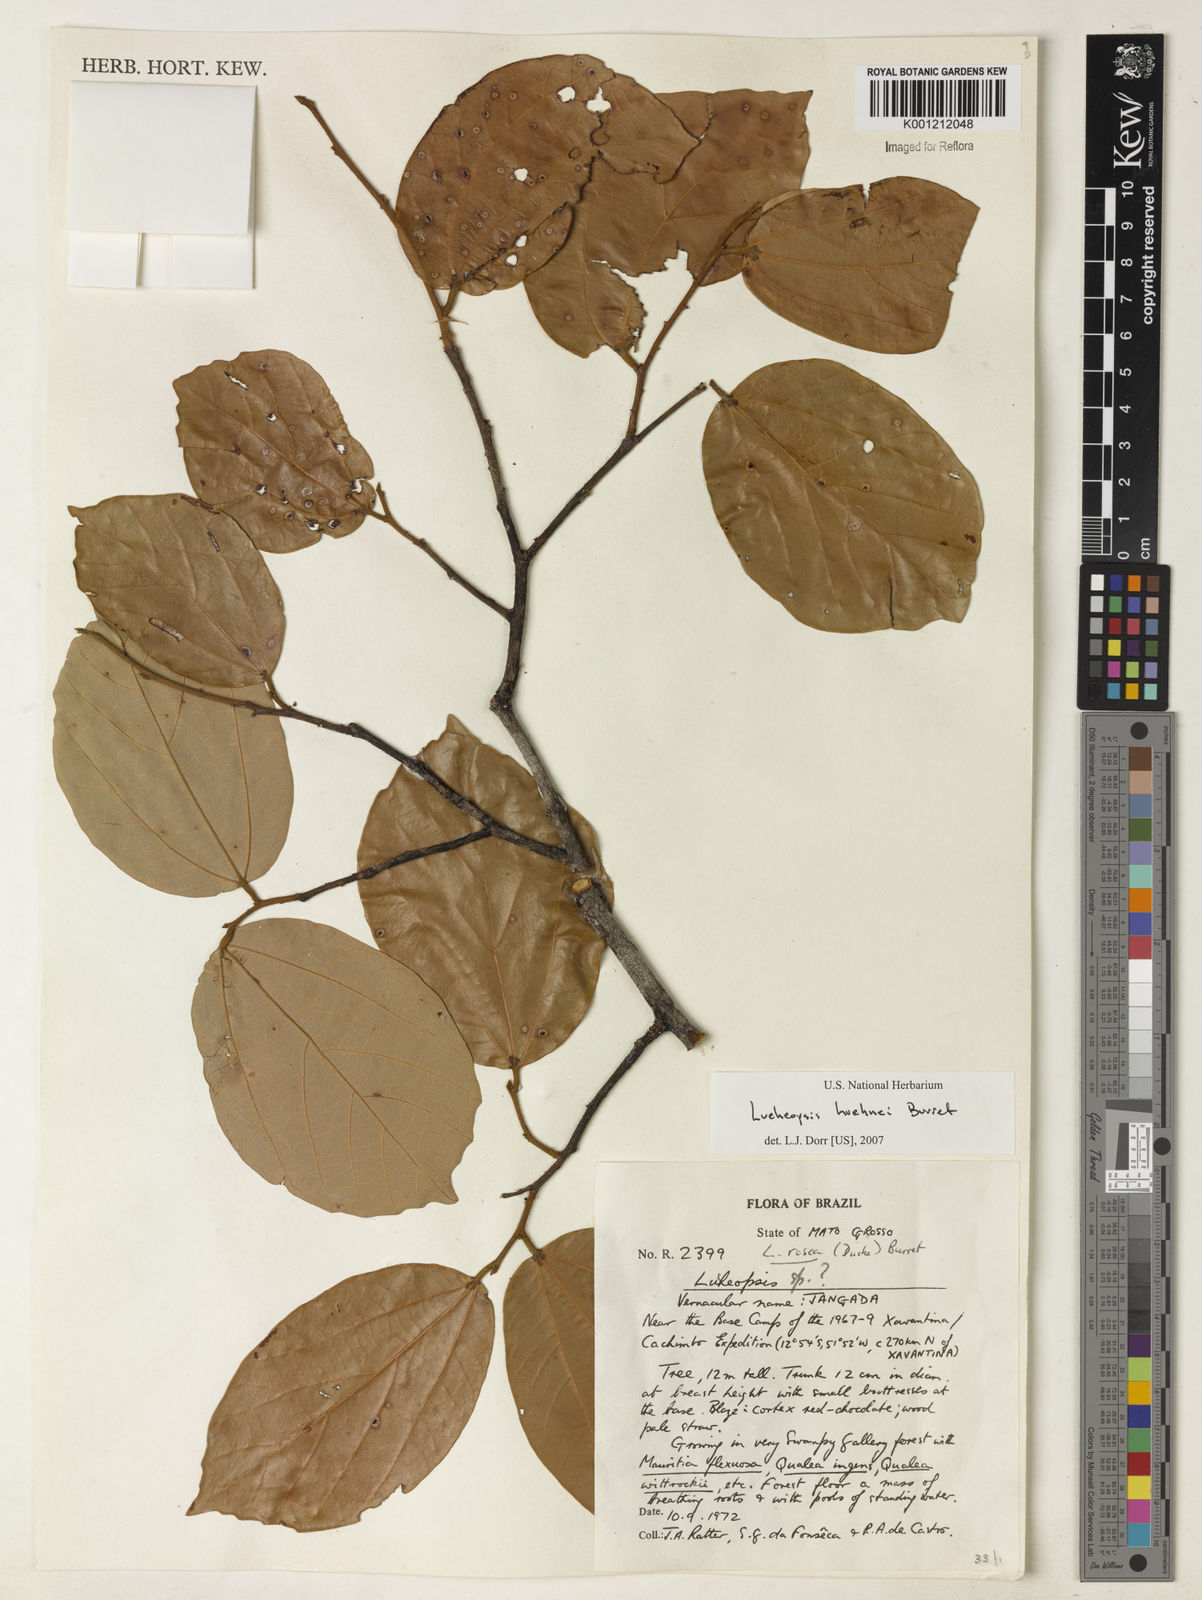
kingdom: Plantae
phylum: Tracheophyta
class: Magnoliopsida
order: Malvales
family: Malvaceae
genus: Lueheopsis
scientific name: Lueheopsis hoehnei
